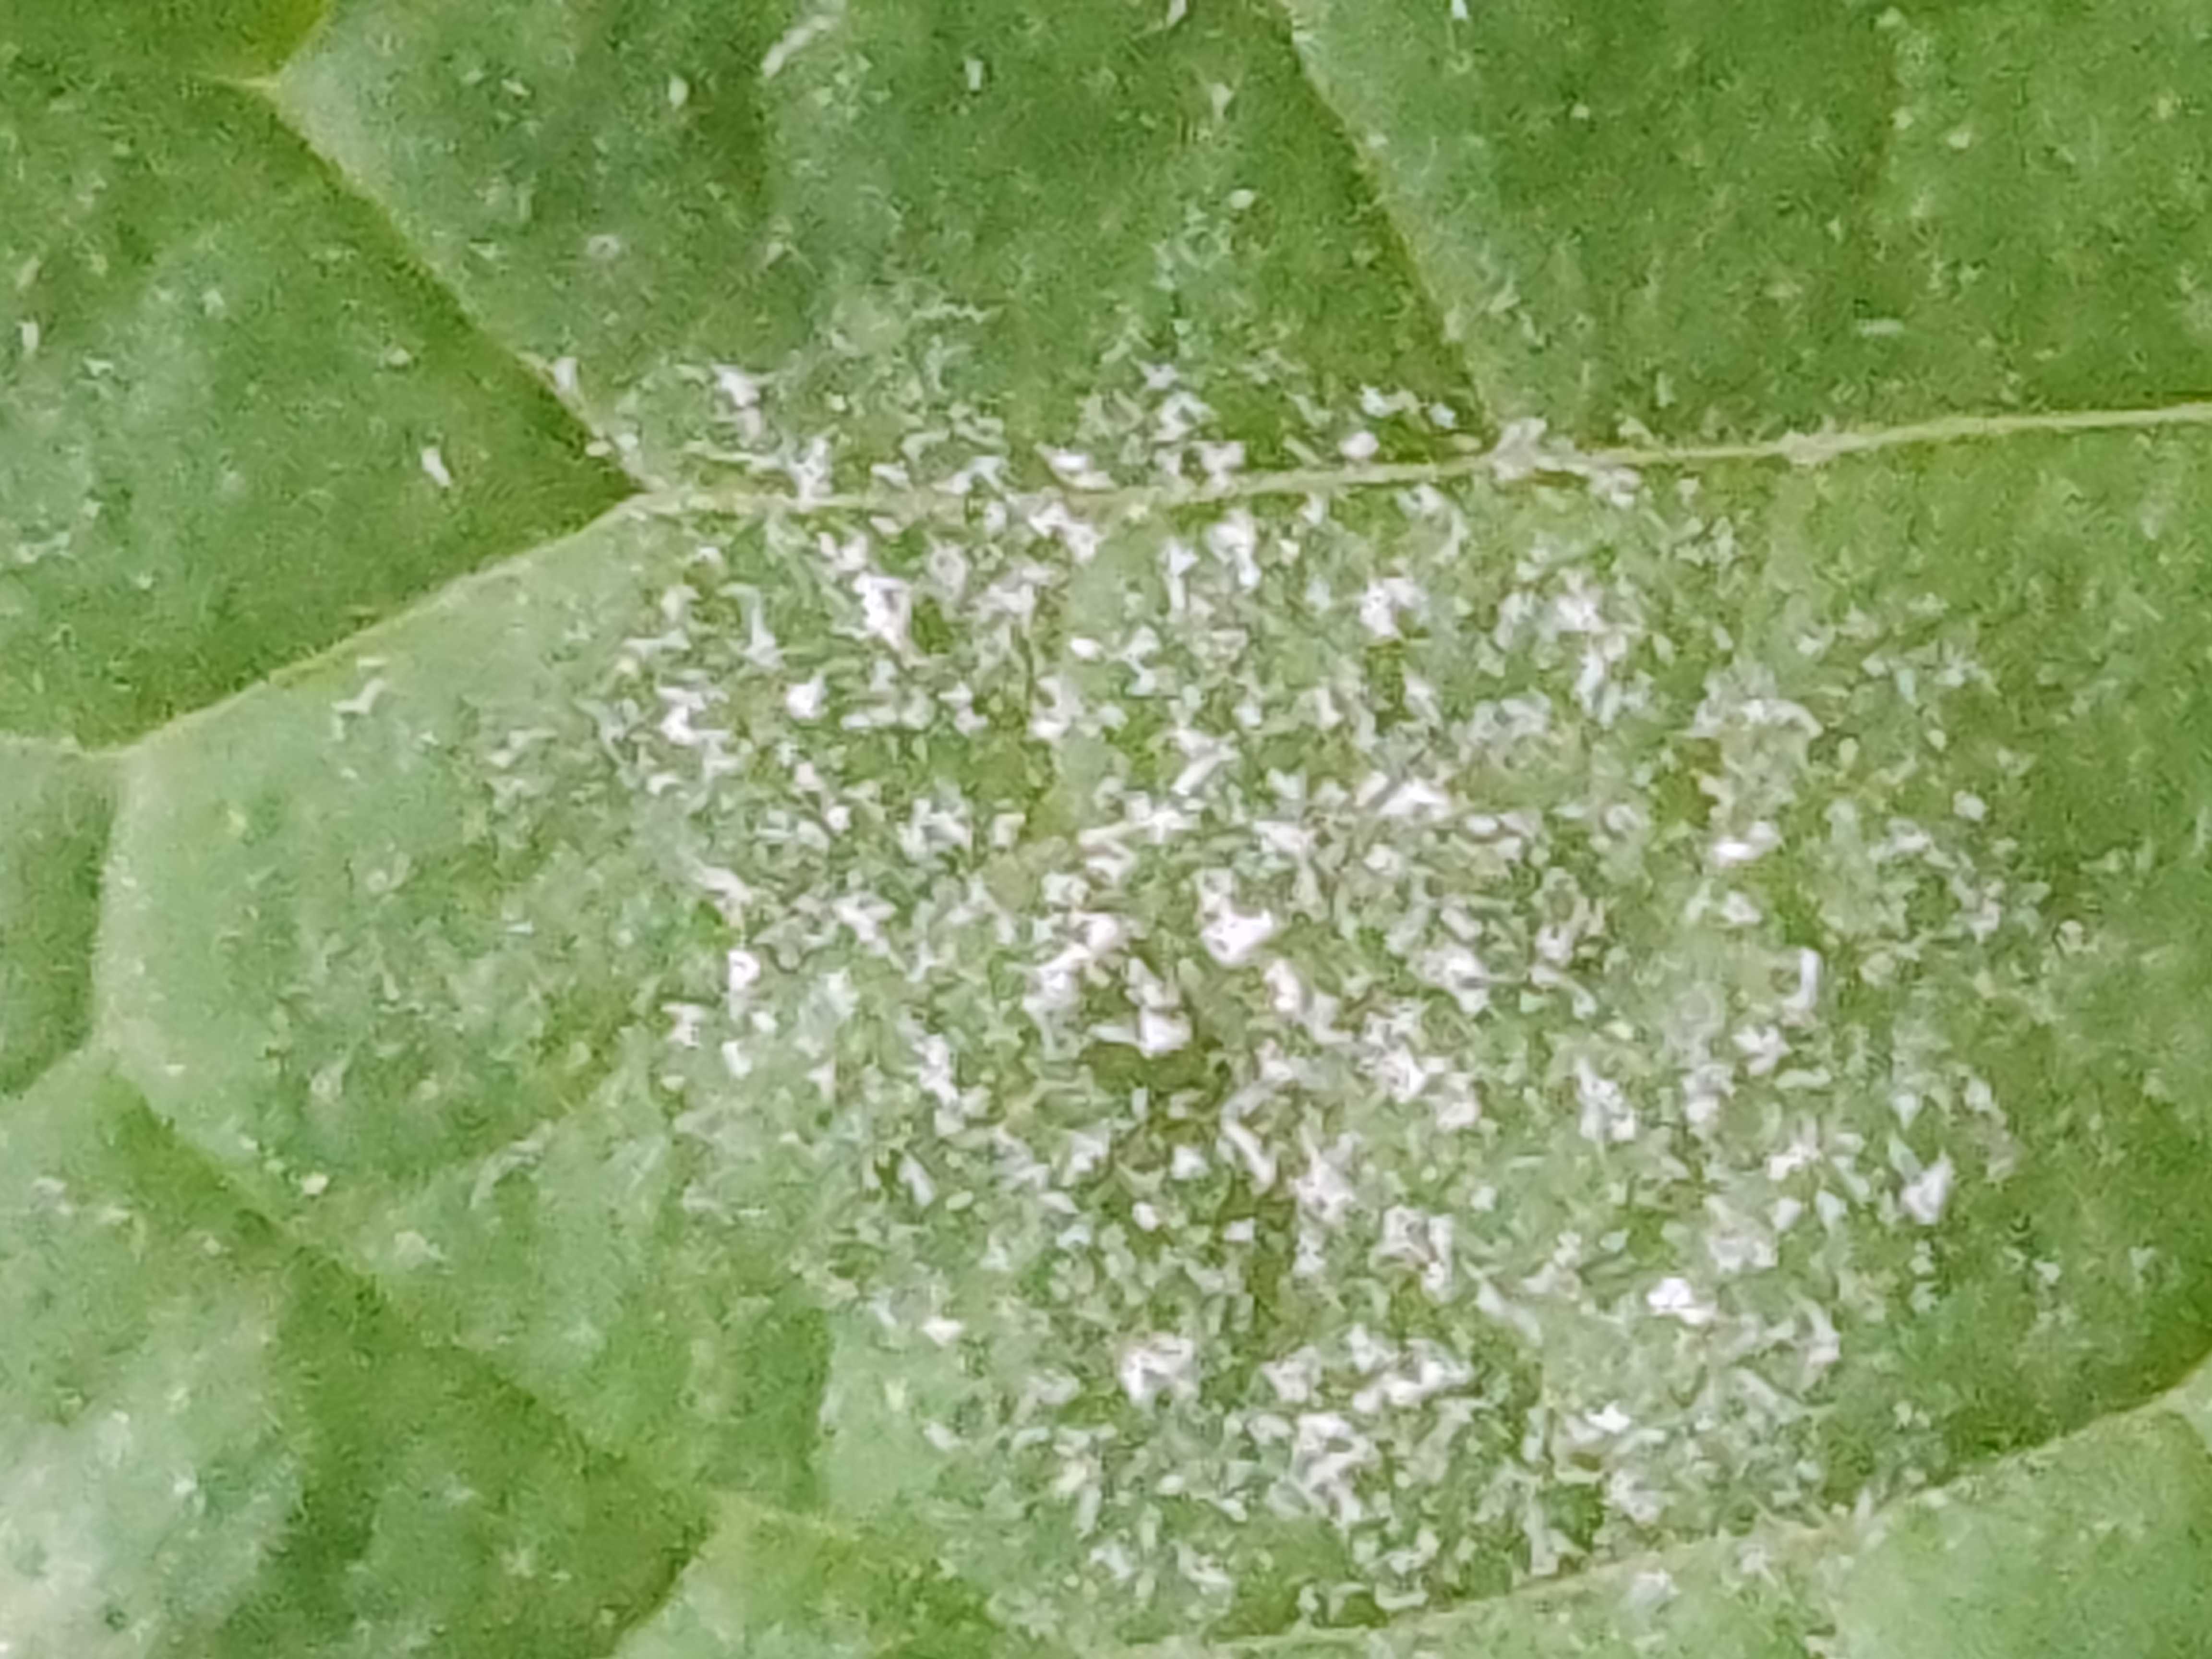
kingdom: Fungi
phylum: Ascomycota
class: Leotiomycetes
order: Helotiales
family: Erysiphaceae
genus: Golovinomyces
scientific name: Golovinomyces monardae
